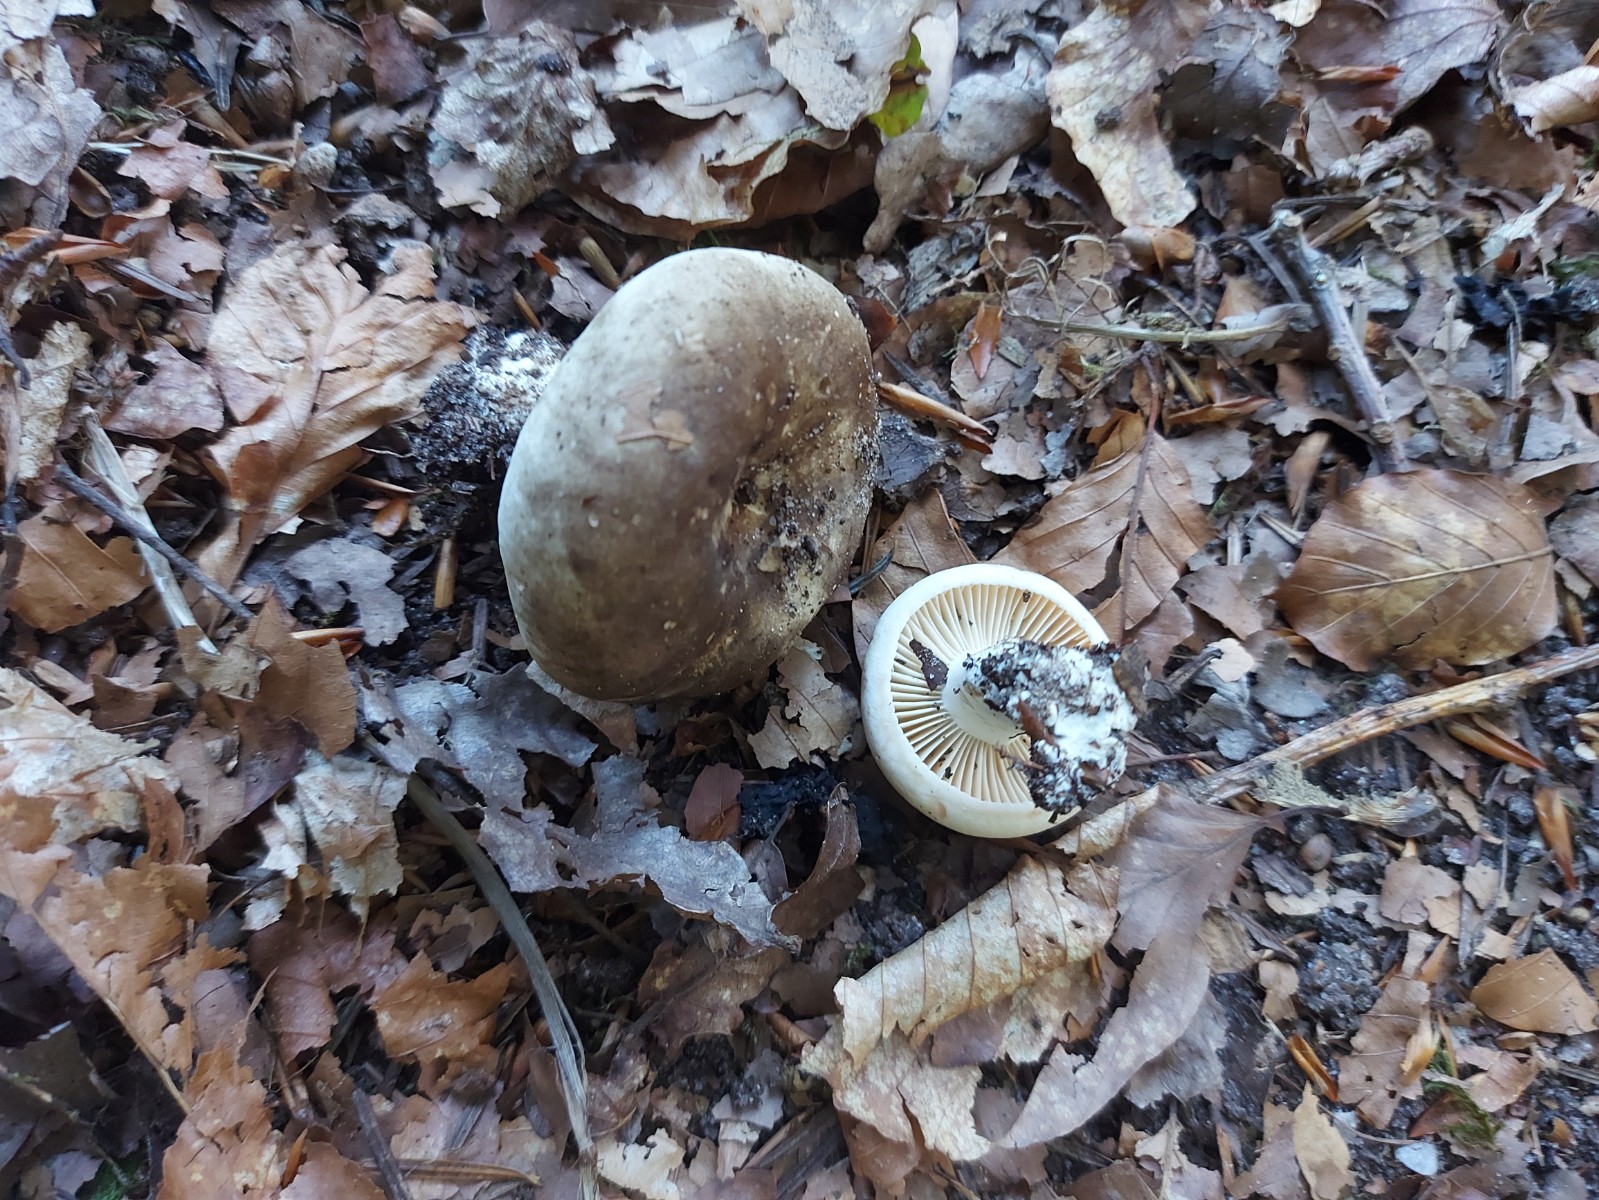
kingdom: Fungi
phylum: Basidiomycota
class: Agaricomycetes
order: Russulales
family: Russulaceae
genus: Russula
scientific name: Russula adusta
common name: sværtende skørhat
